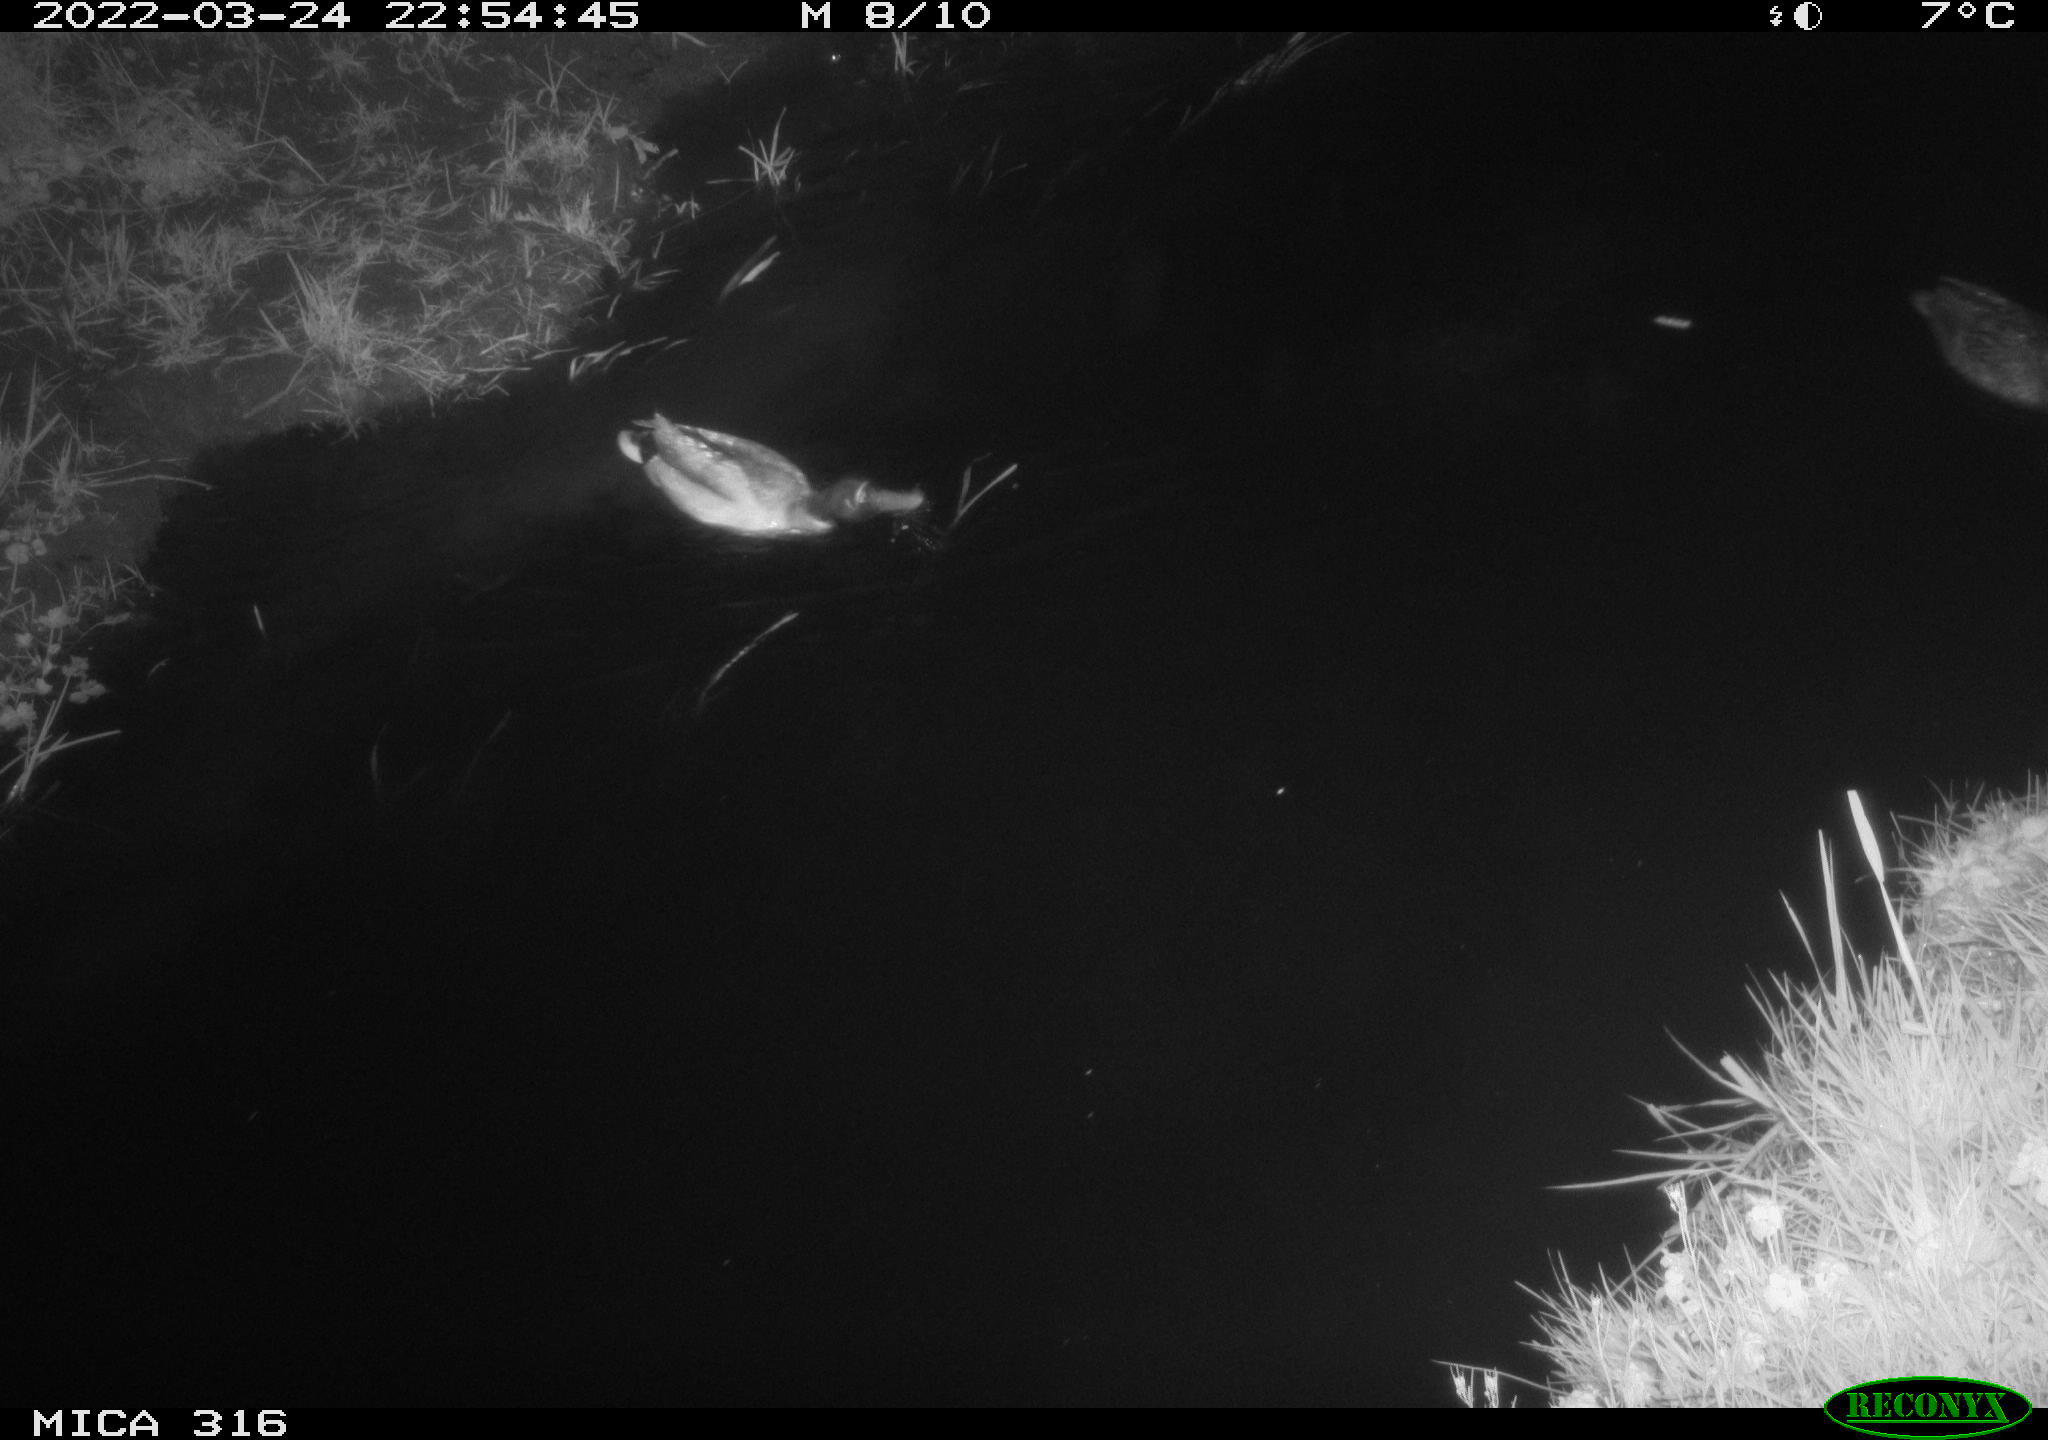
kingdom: Animalia
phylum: Chordata
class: Aves
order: Anseriformes
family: Anatidae
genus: Anas
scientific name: Anas platyrhynchos
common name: Mallard
